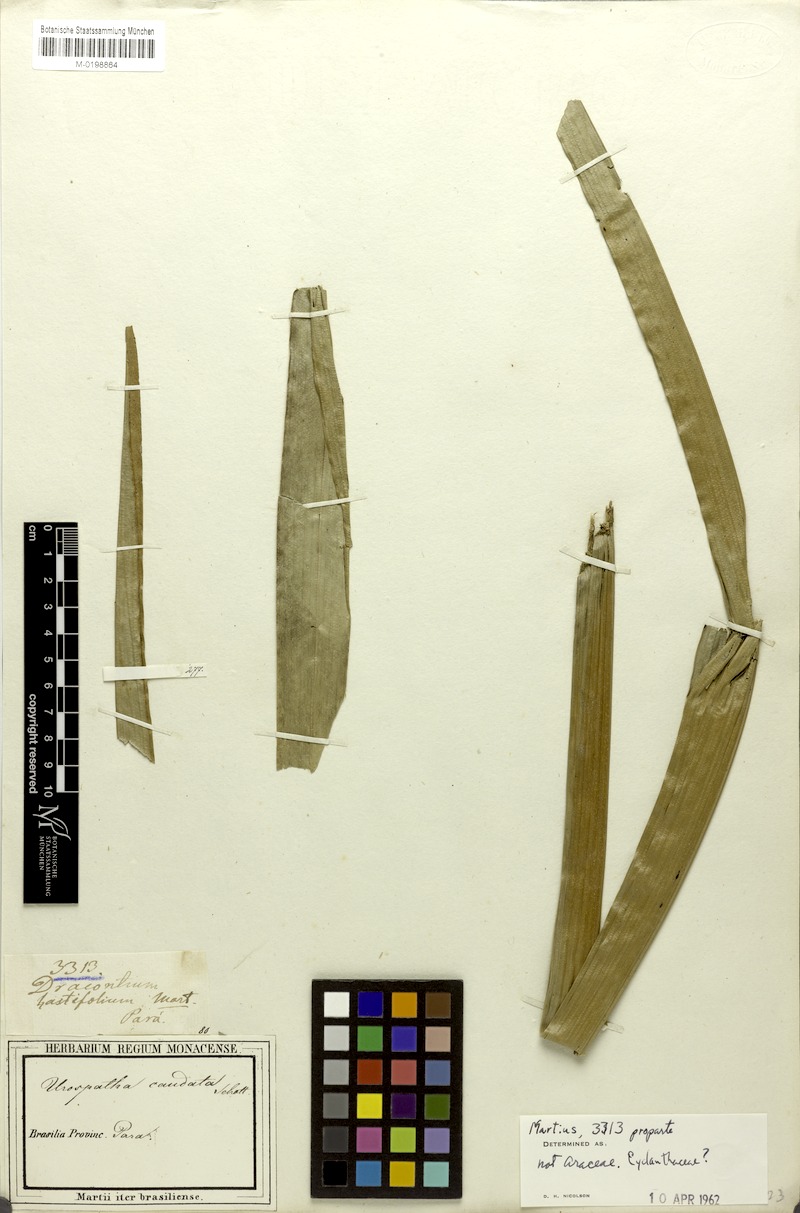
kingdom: Plantae
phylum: Tracheophyta
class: Liliopsida
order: Alismatales
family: Araceae
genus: Urospatha
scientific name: Urospatha caudata
